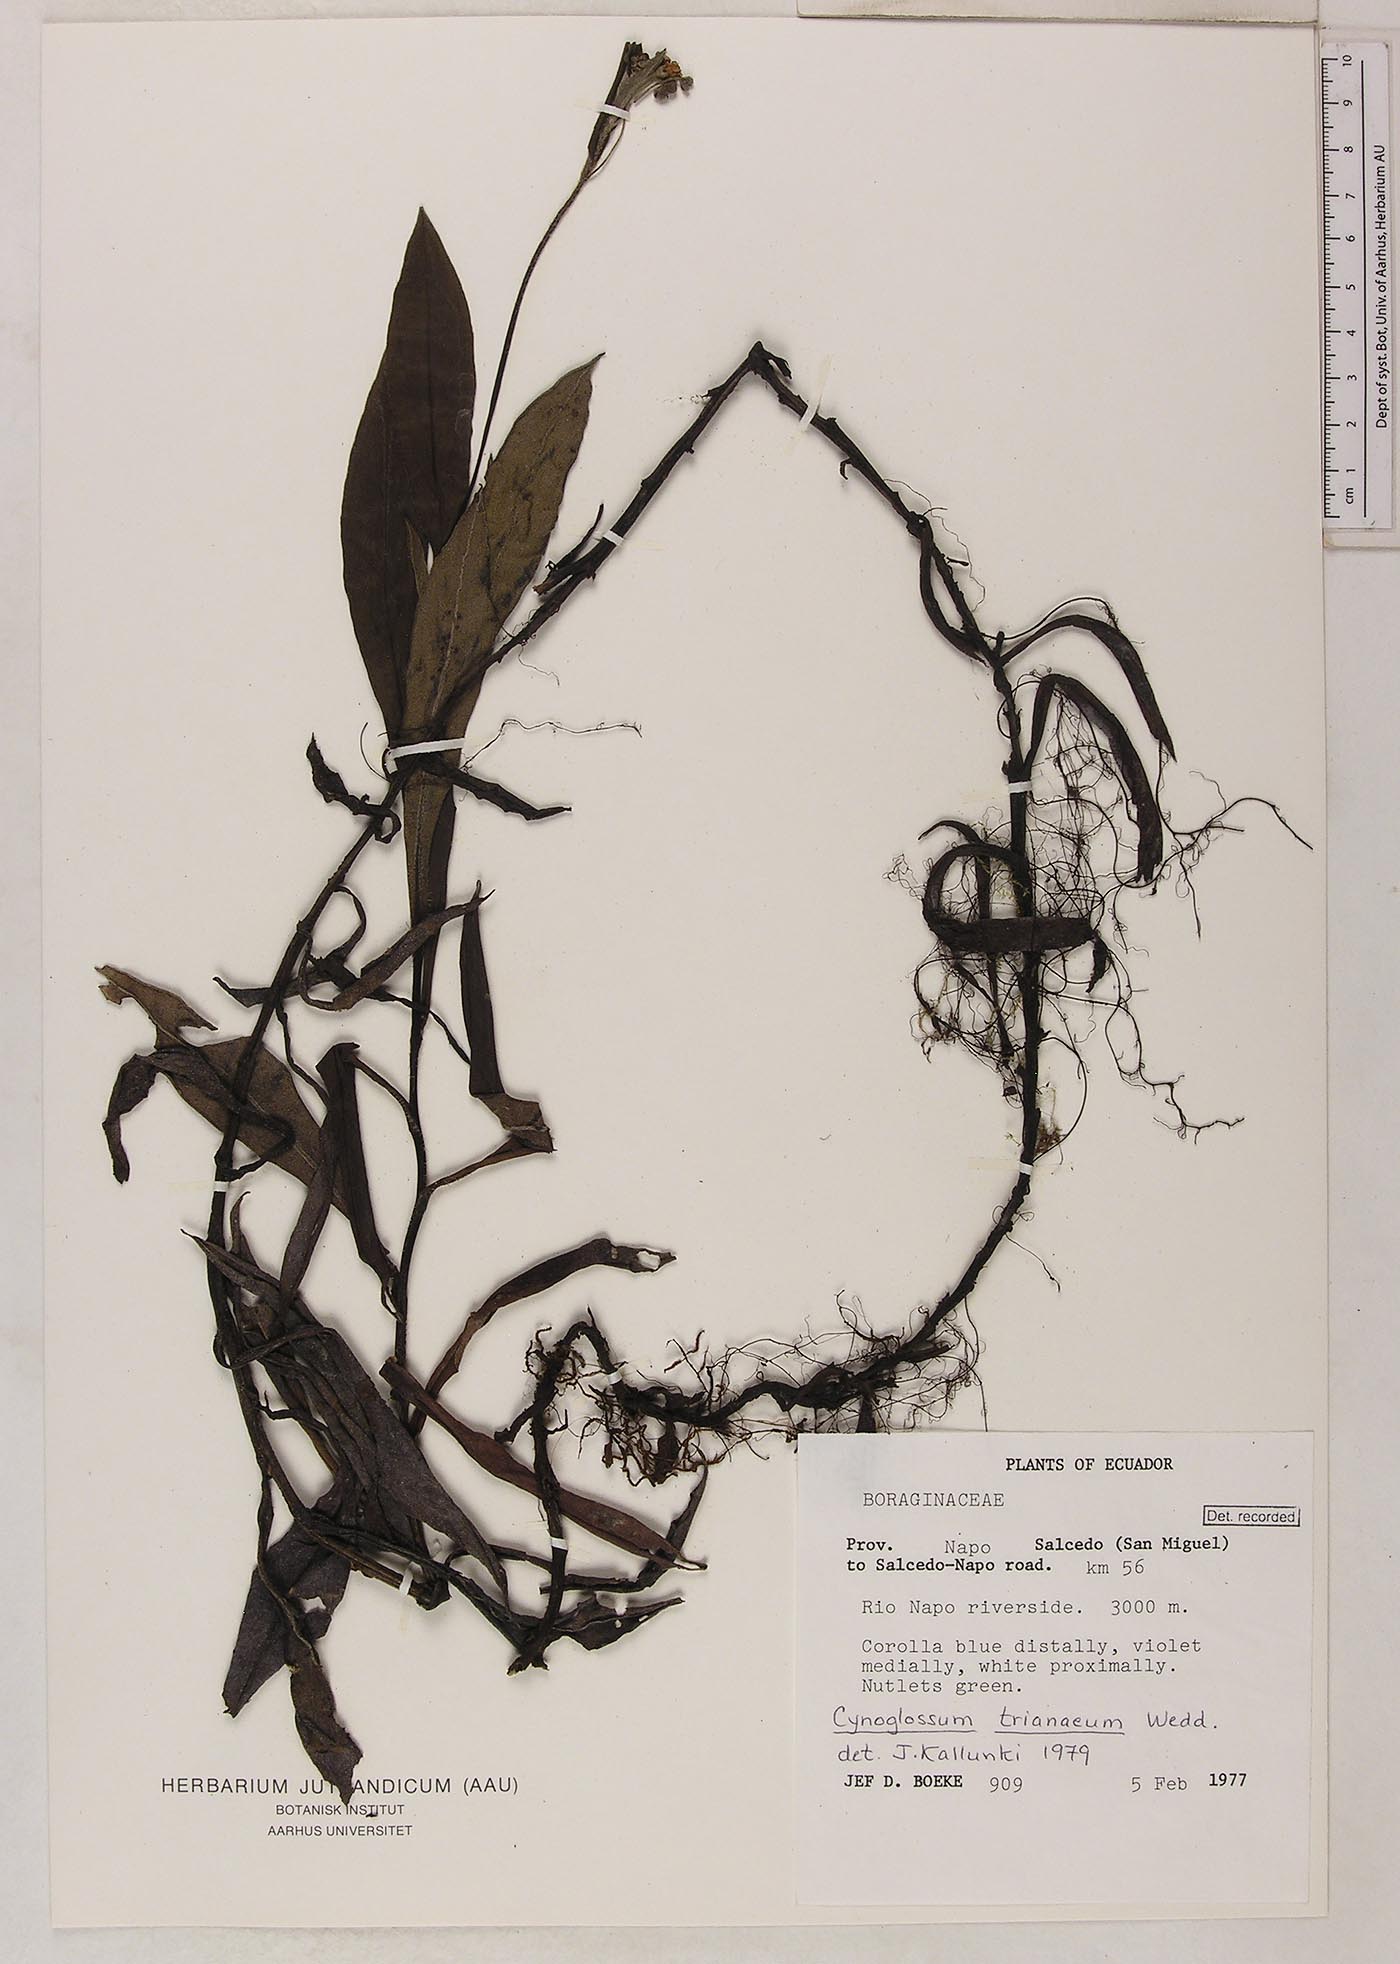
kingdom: Plantae
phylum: Tracheophyta
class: Magnoliopsida
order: Boraginales
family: Boraginaceae
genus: Selkirkia
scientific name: Selkirkia trianaeum
